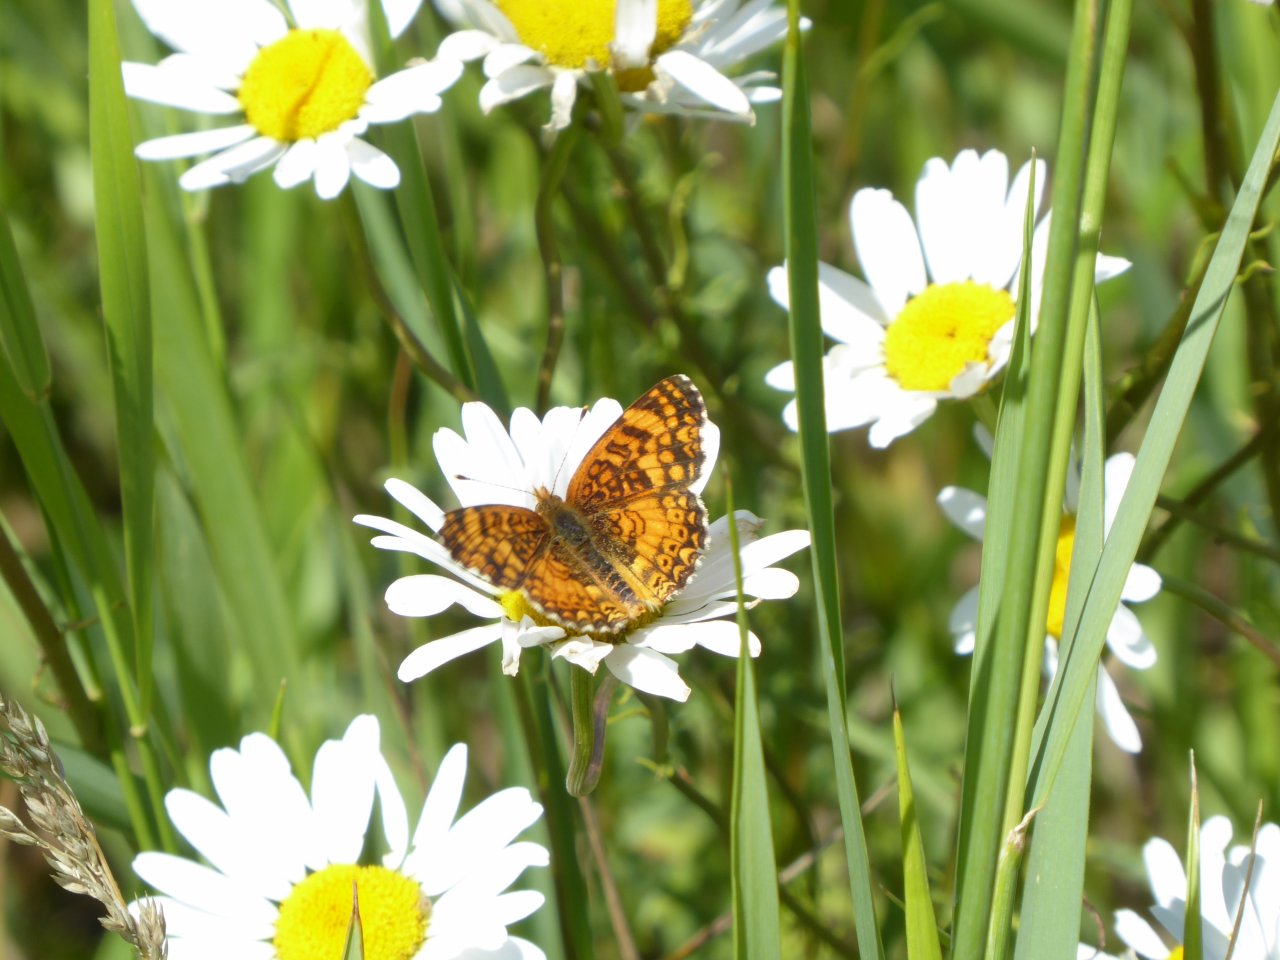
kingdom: Animalia
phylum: Arthropoda
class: Insecta
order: Lepidoptera
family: Nymphalidae
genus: Eresia
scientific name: Eresia aveyrona
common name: Mylitta Crescent
